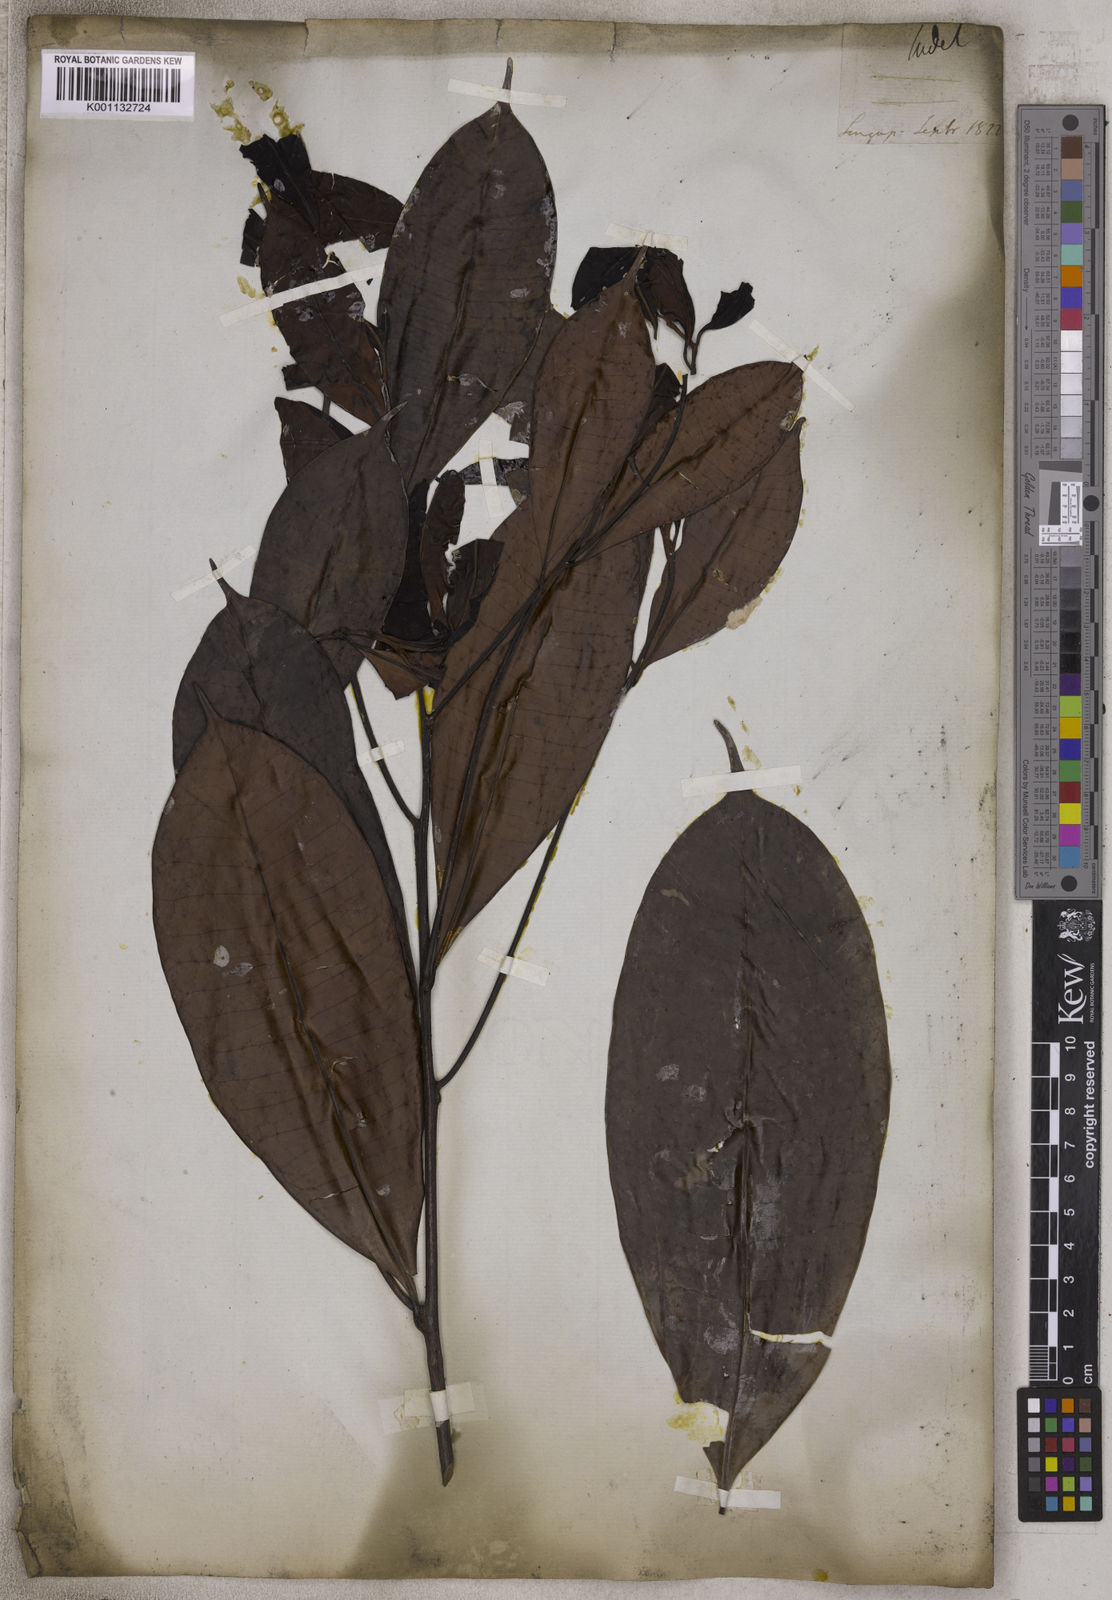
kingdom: Plantae
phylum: Tracheophyta
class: Magnoliopsida
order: Ericales
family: Sapotaceae
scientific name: Sapotaceae
